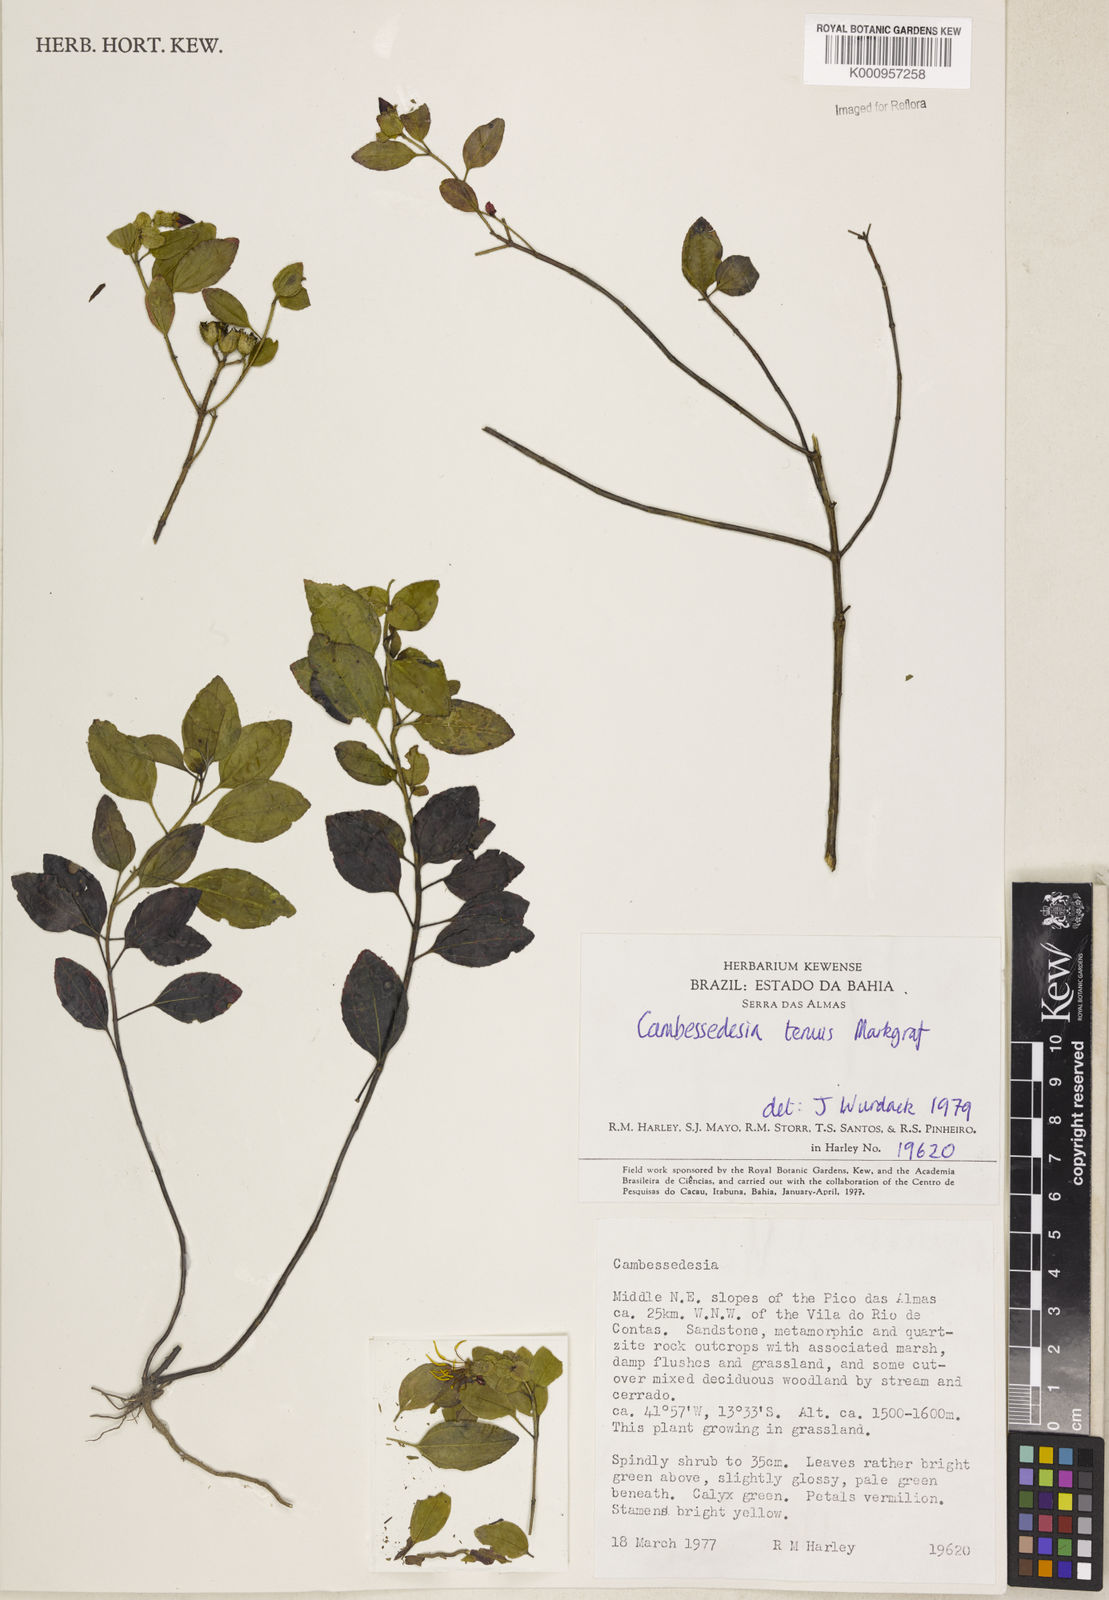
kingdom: Plantae
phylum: Tracheophyta
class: Magnoliopsida
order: Myrtales
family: Melastomataceae
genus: Cambessedesia
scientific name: Cambessedesia tenuis
